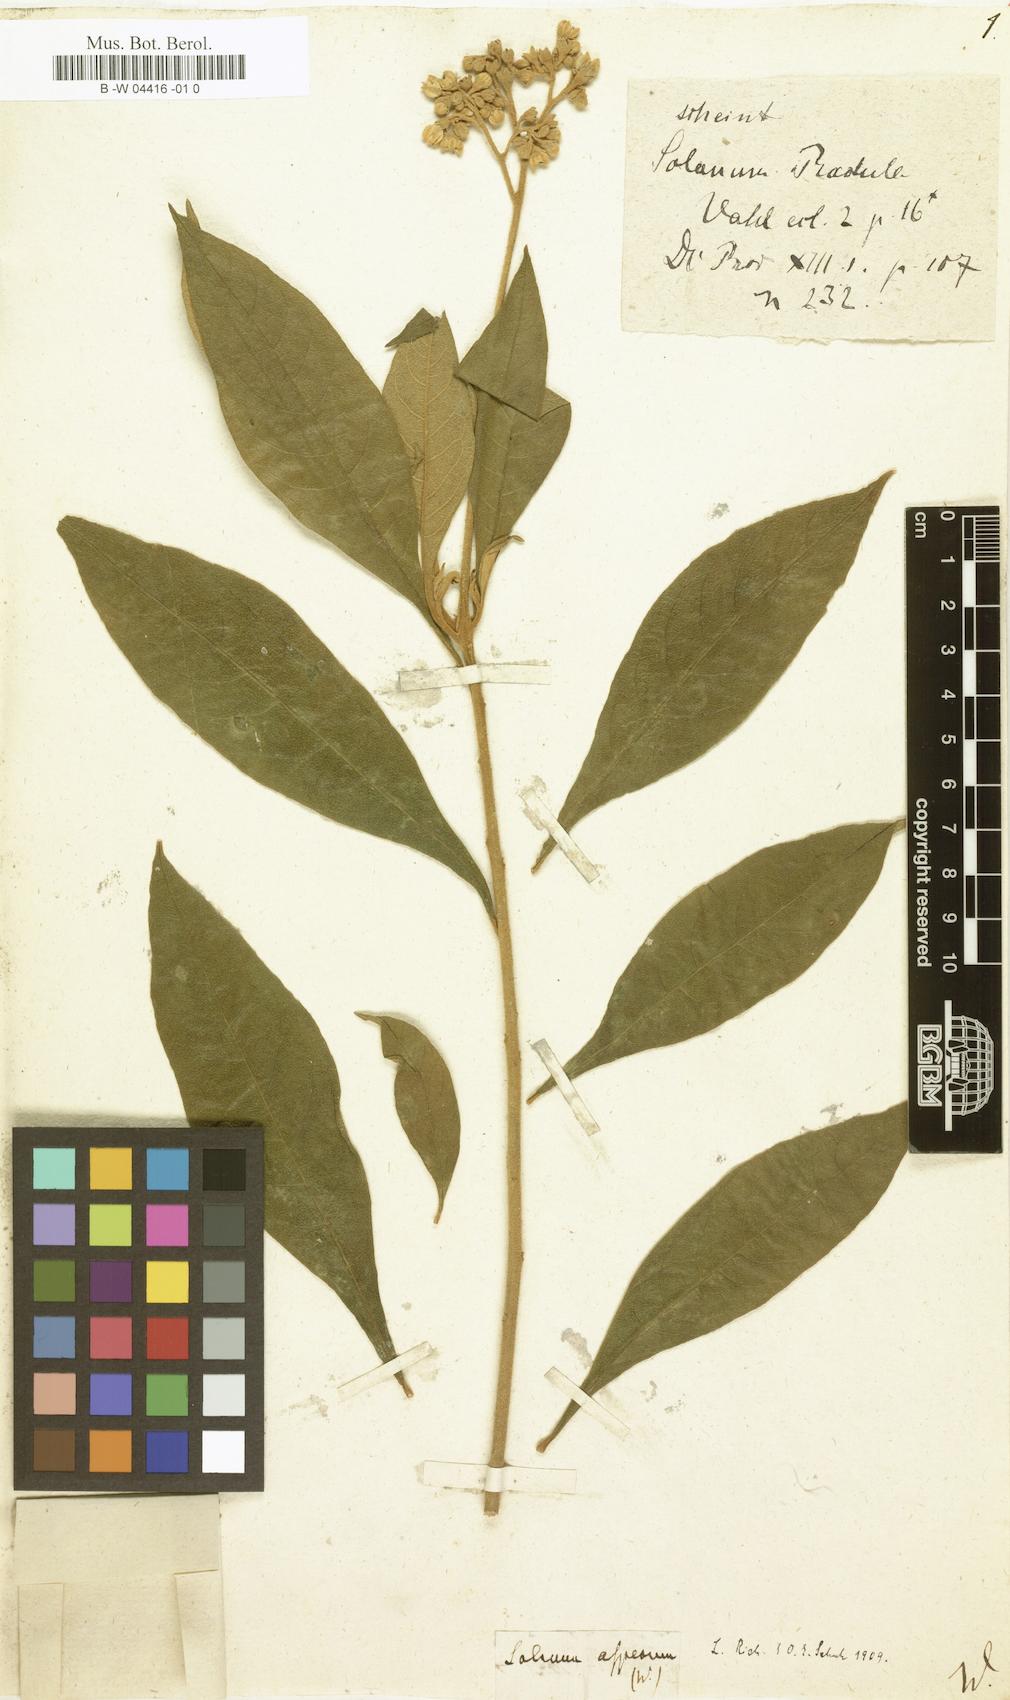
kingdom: Plantae
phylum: Tracheophyta
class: Magnoliopsida
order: Solanales
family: Solanaceae
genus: Solanum
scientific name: Solanum asperum
